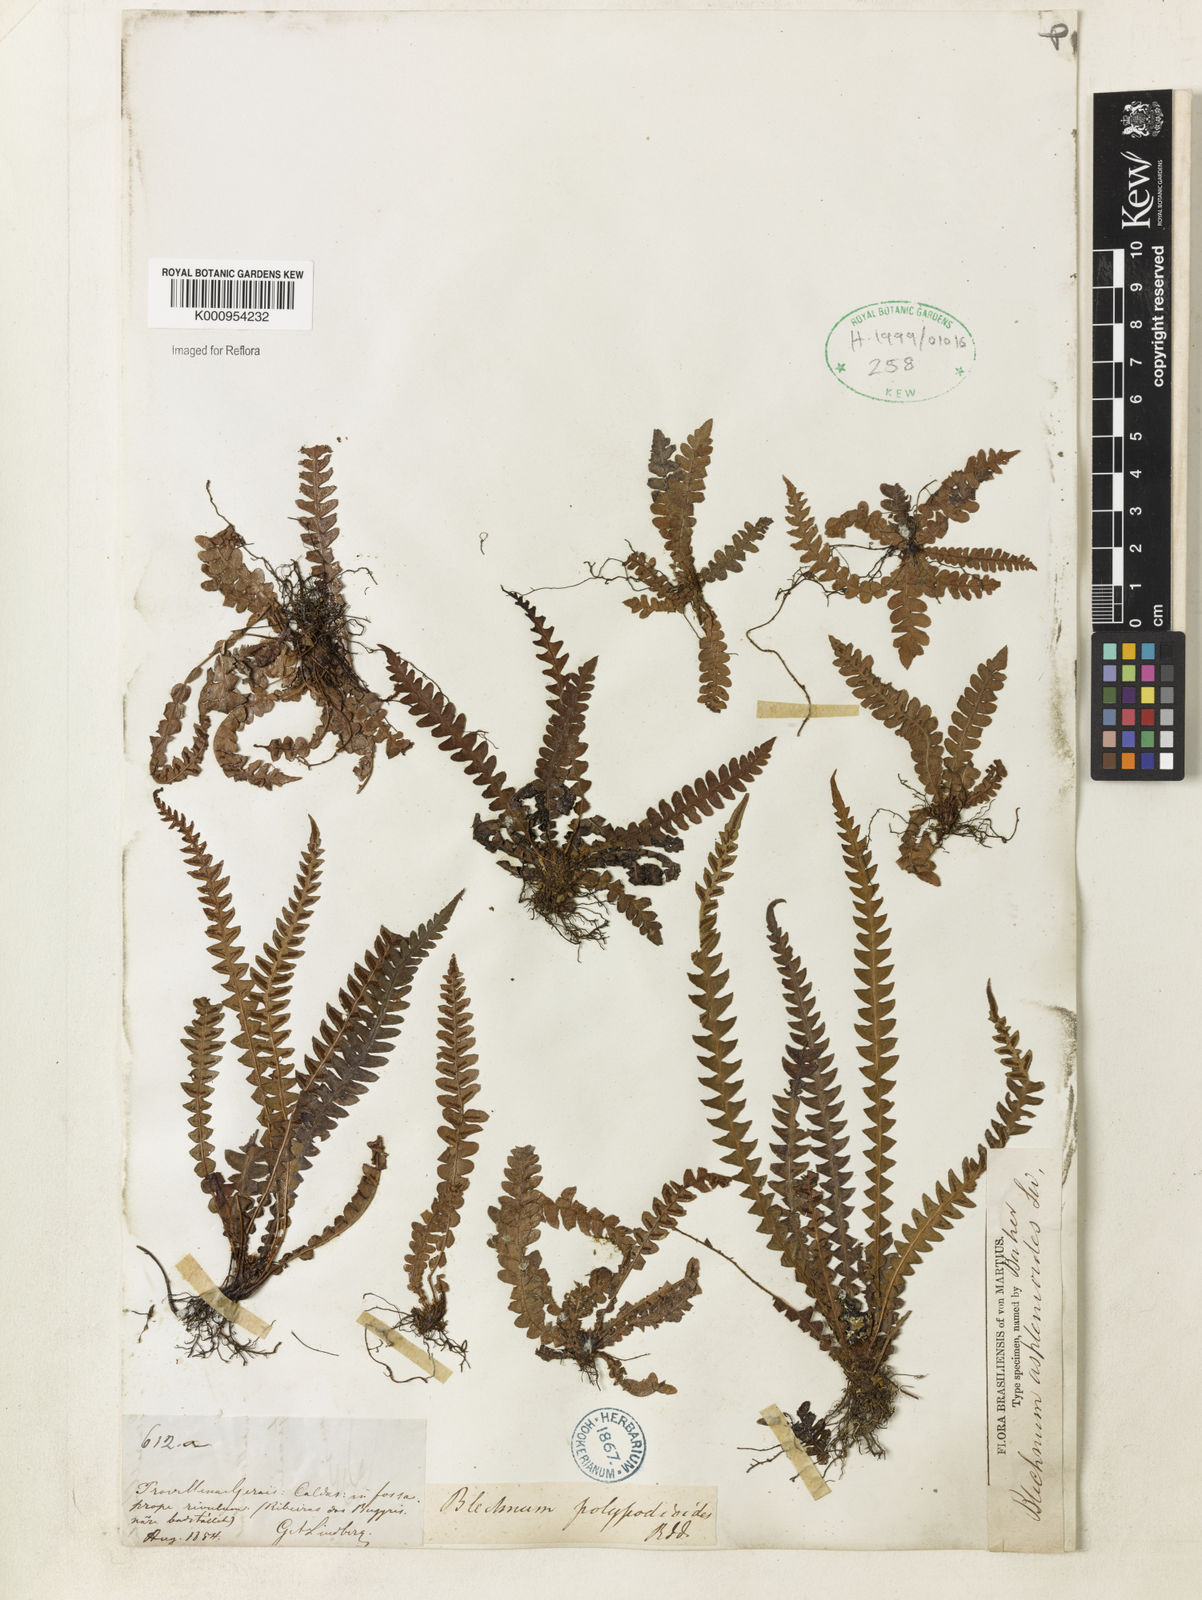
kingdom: Plantae
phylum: Tracheophyta
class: Polypodiopsida
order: Polypodiales
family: Blechnaceae
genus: Blechnum
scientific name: Blechnum asplenioides
